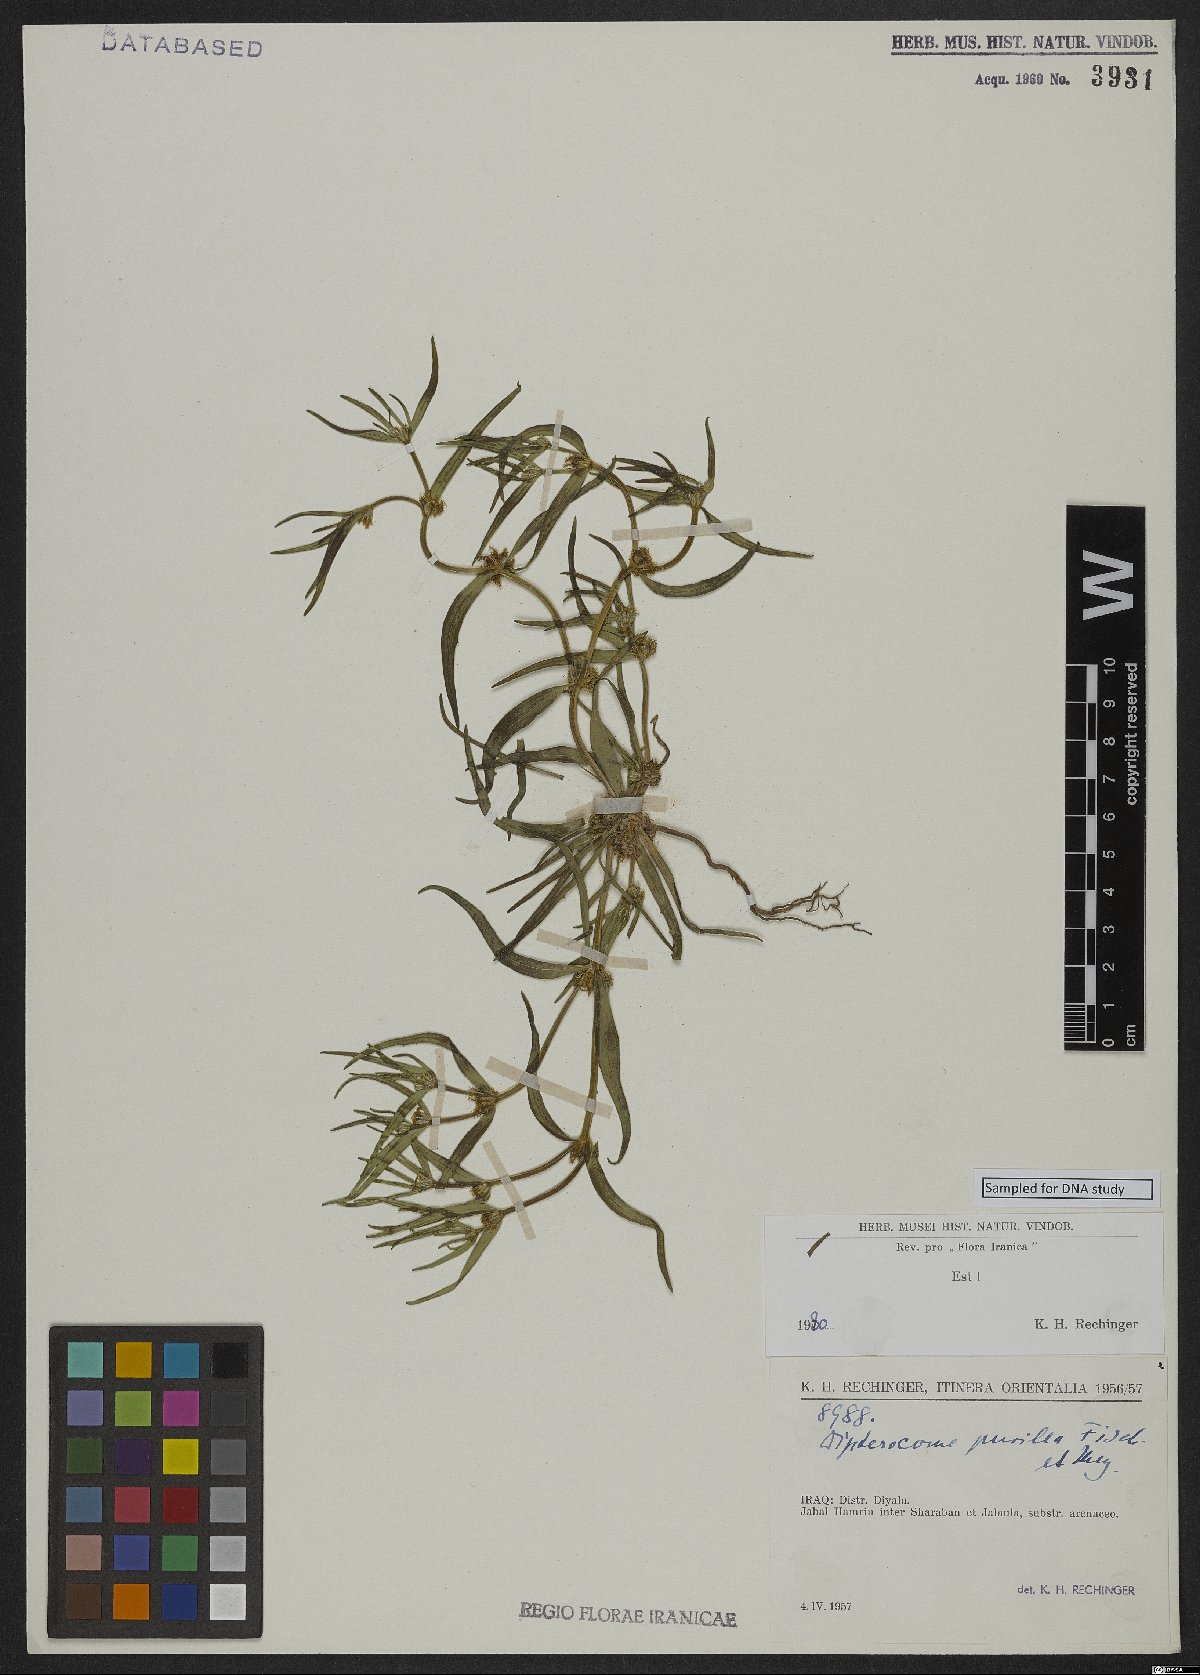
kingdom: Plantae
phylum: Tracheophyta
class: Magnoliopsida
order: Asterales
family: Asteraceae
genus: Dipterocome
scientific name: Dipterocome pusilla
